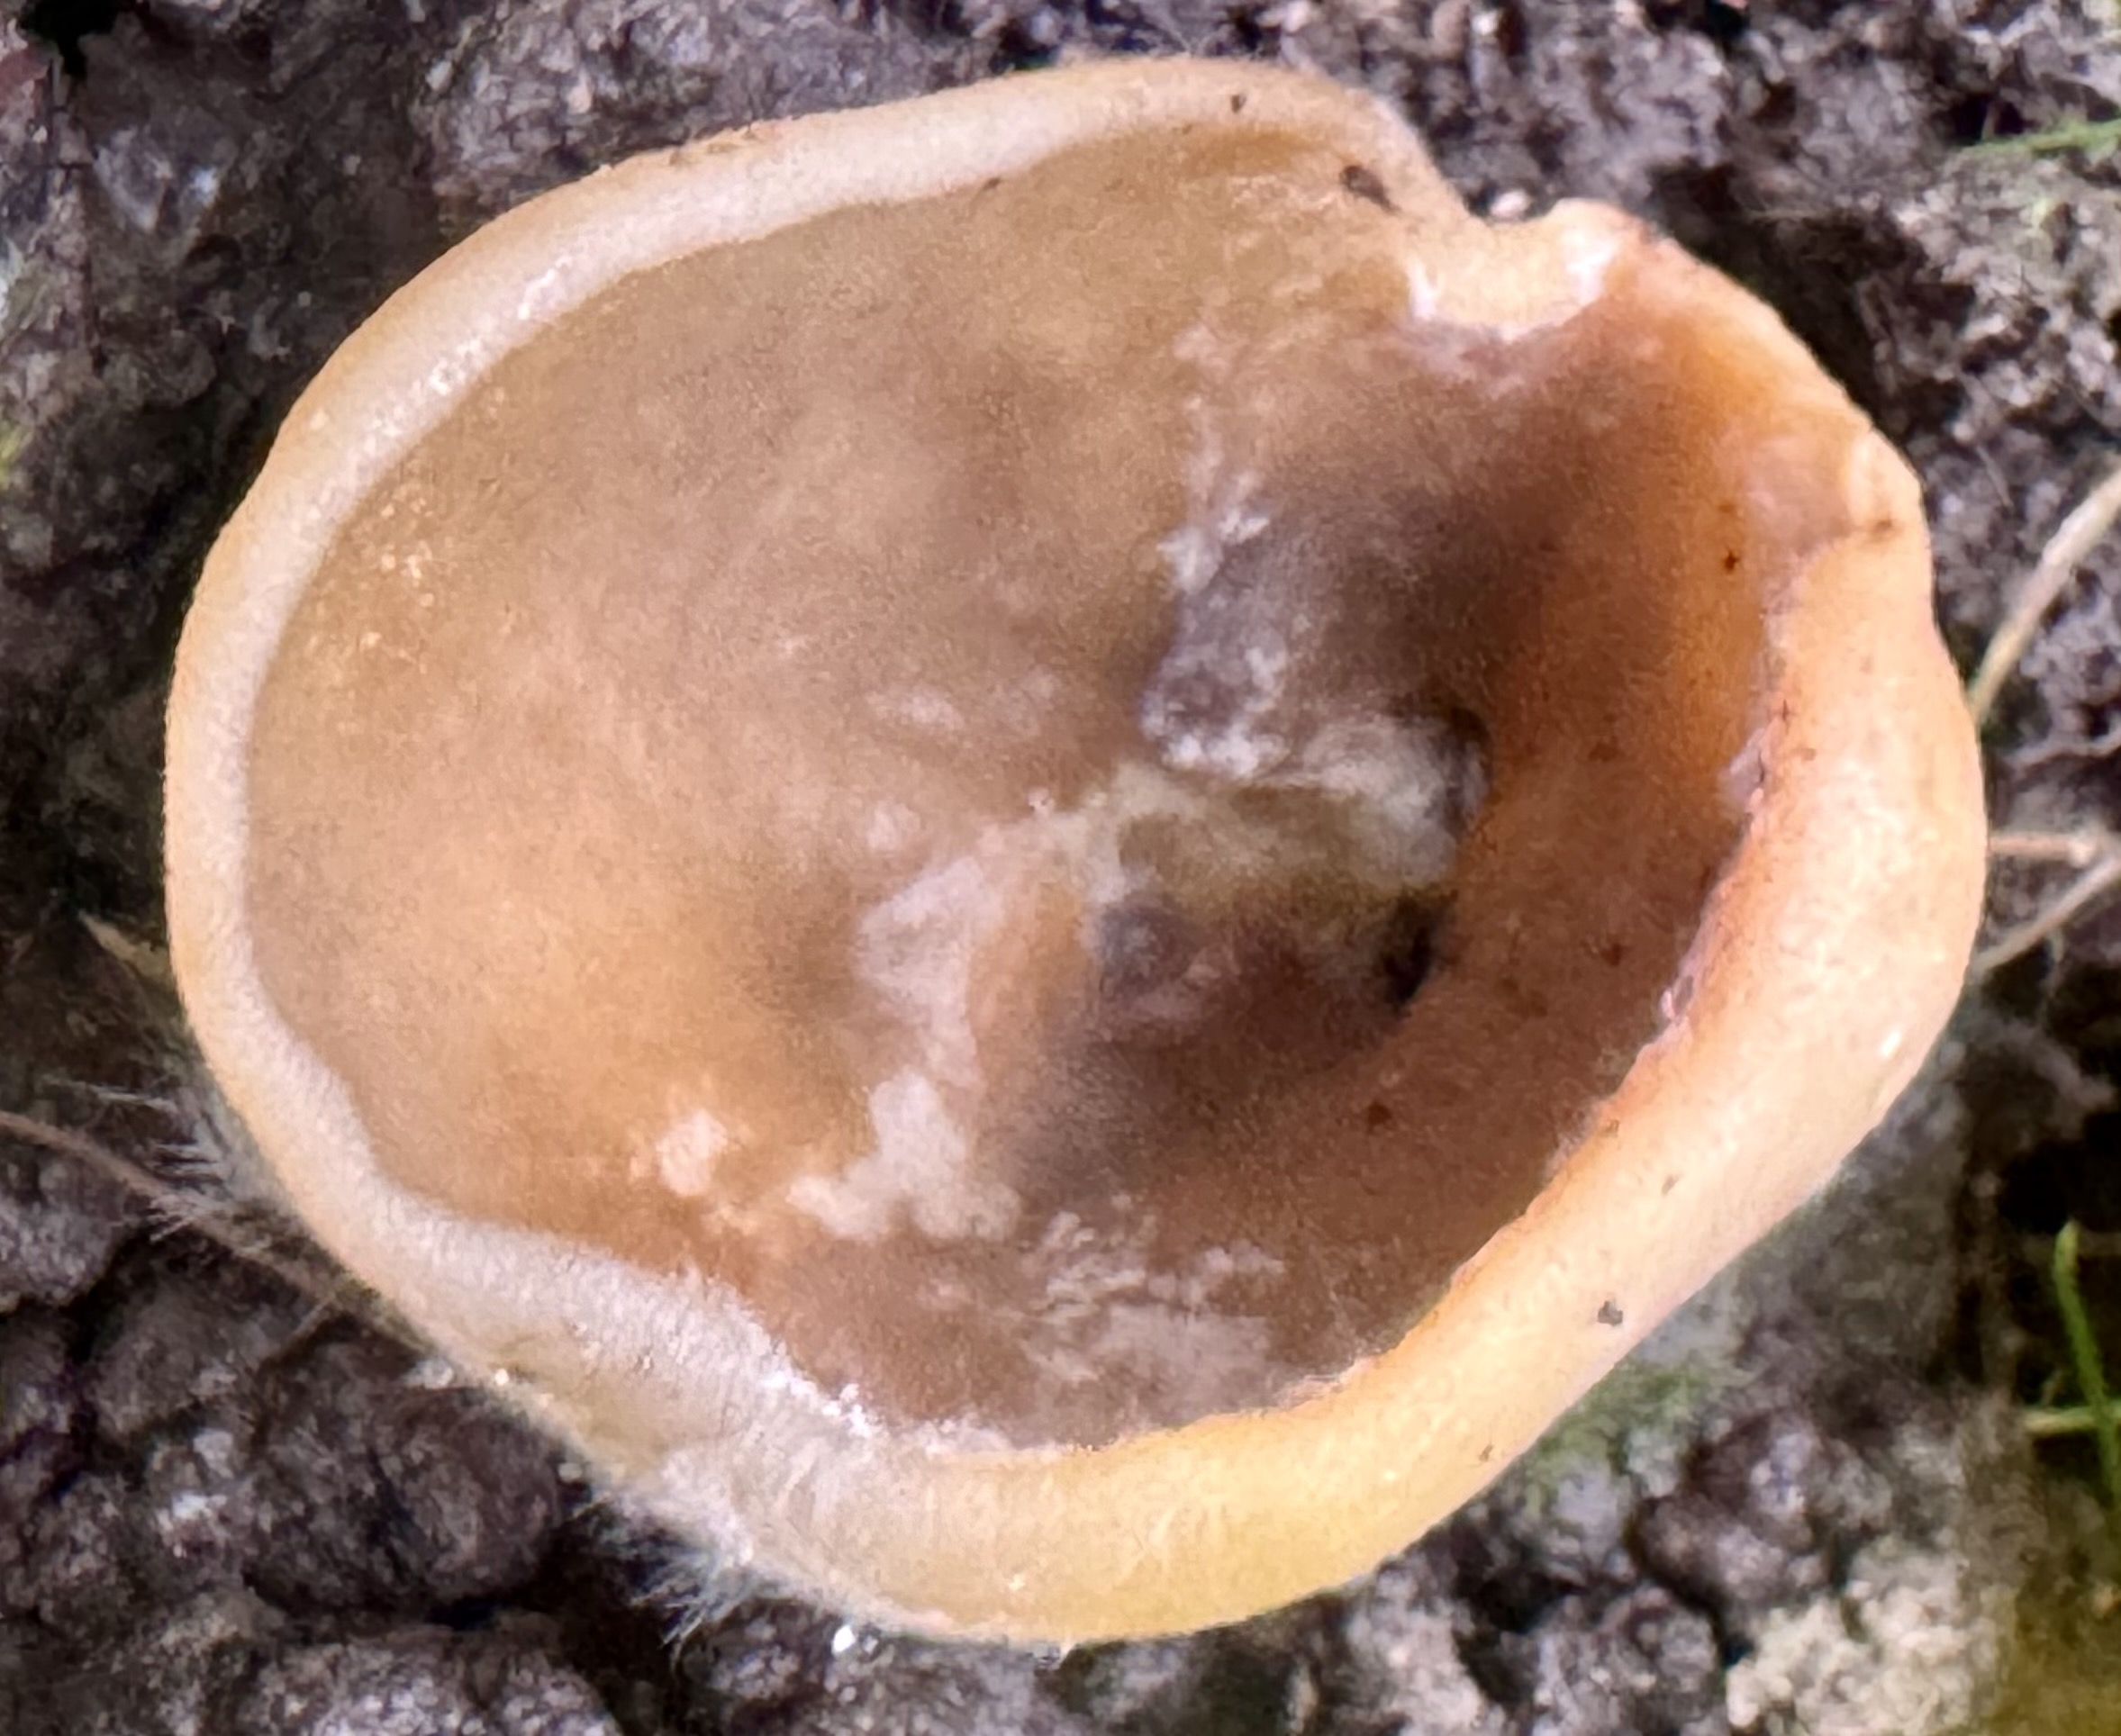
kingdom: Fungi
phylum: Ascomycota
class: Pezizomycetes
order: Pezizales
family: Pezizaceae
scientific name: Pezizaceae
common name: bægersvampfamilien
